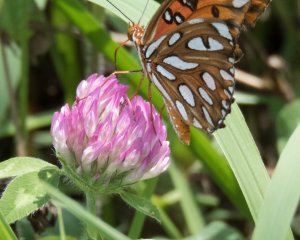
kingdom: Animalia
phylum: Arthropoda
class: Insecta
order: Lepidoptera
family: Nymphalidae
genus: Dione
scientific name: Dione vanillae
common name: Gulf Fritillary
